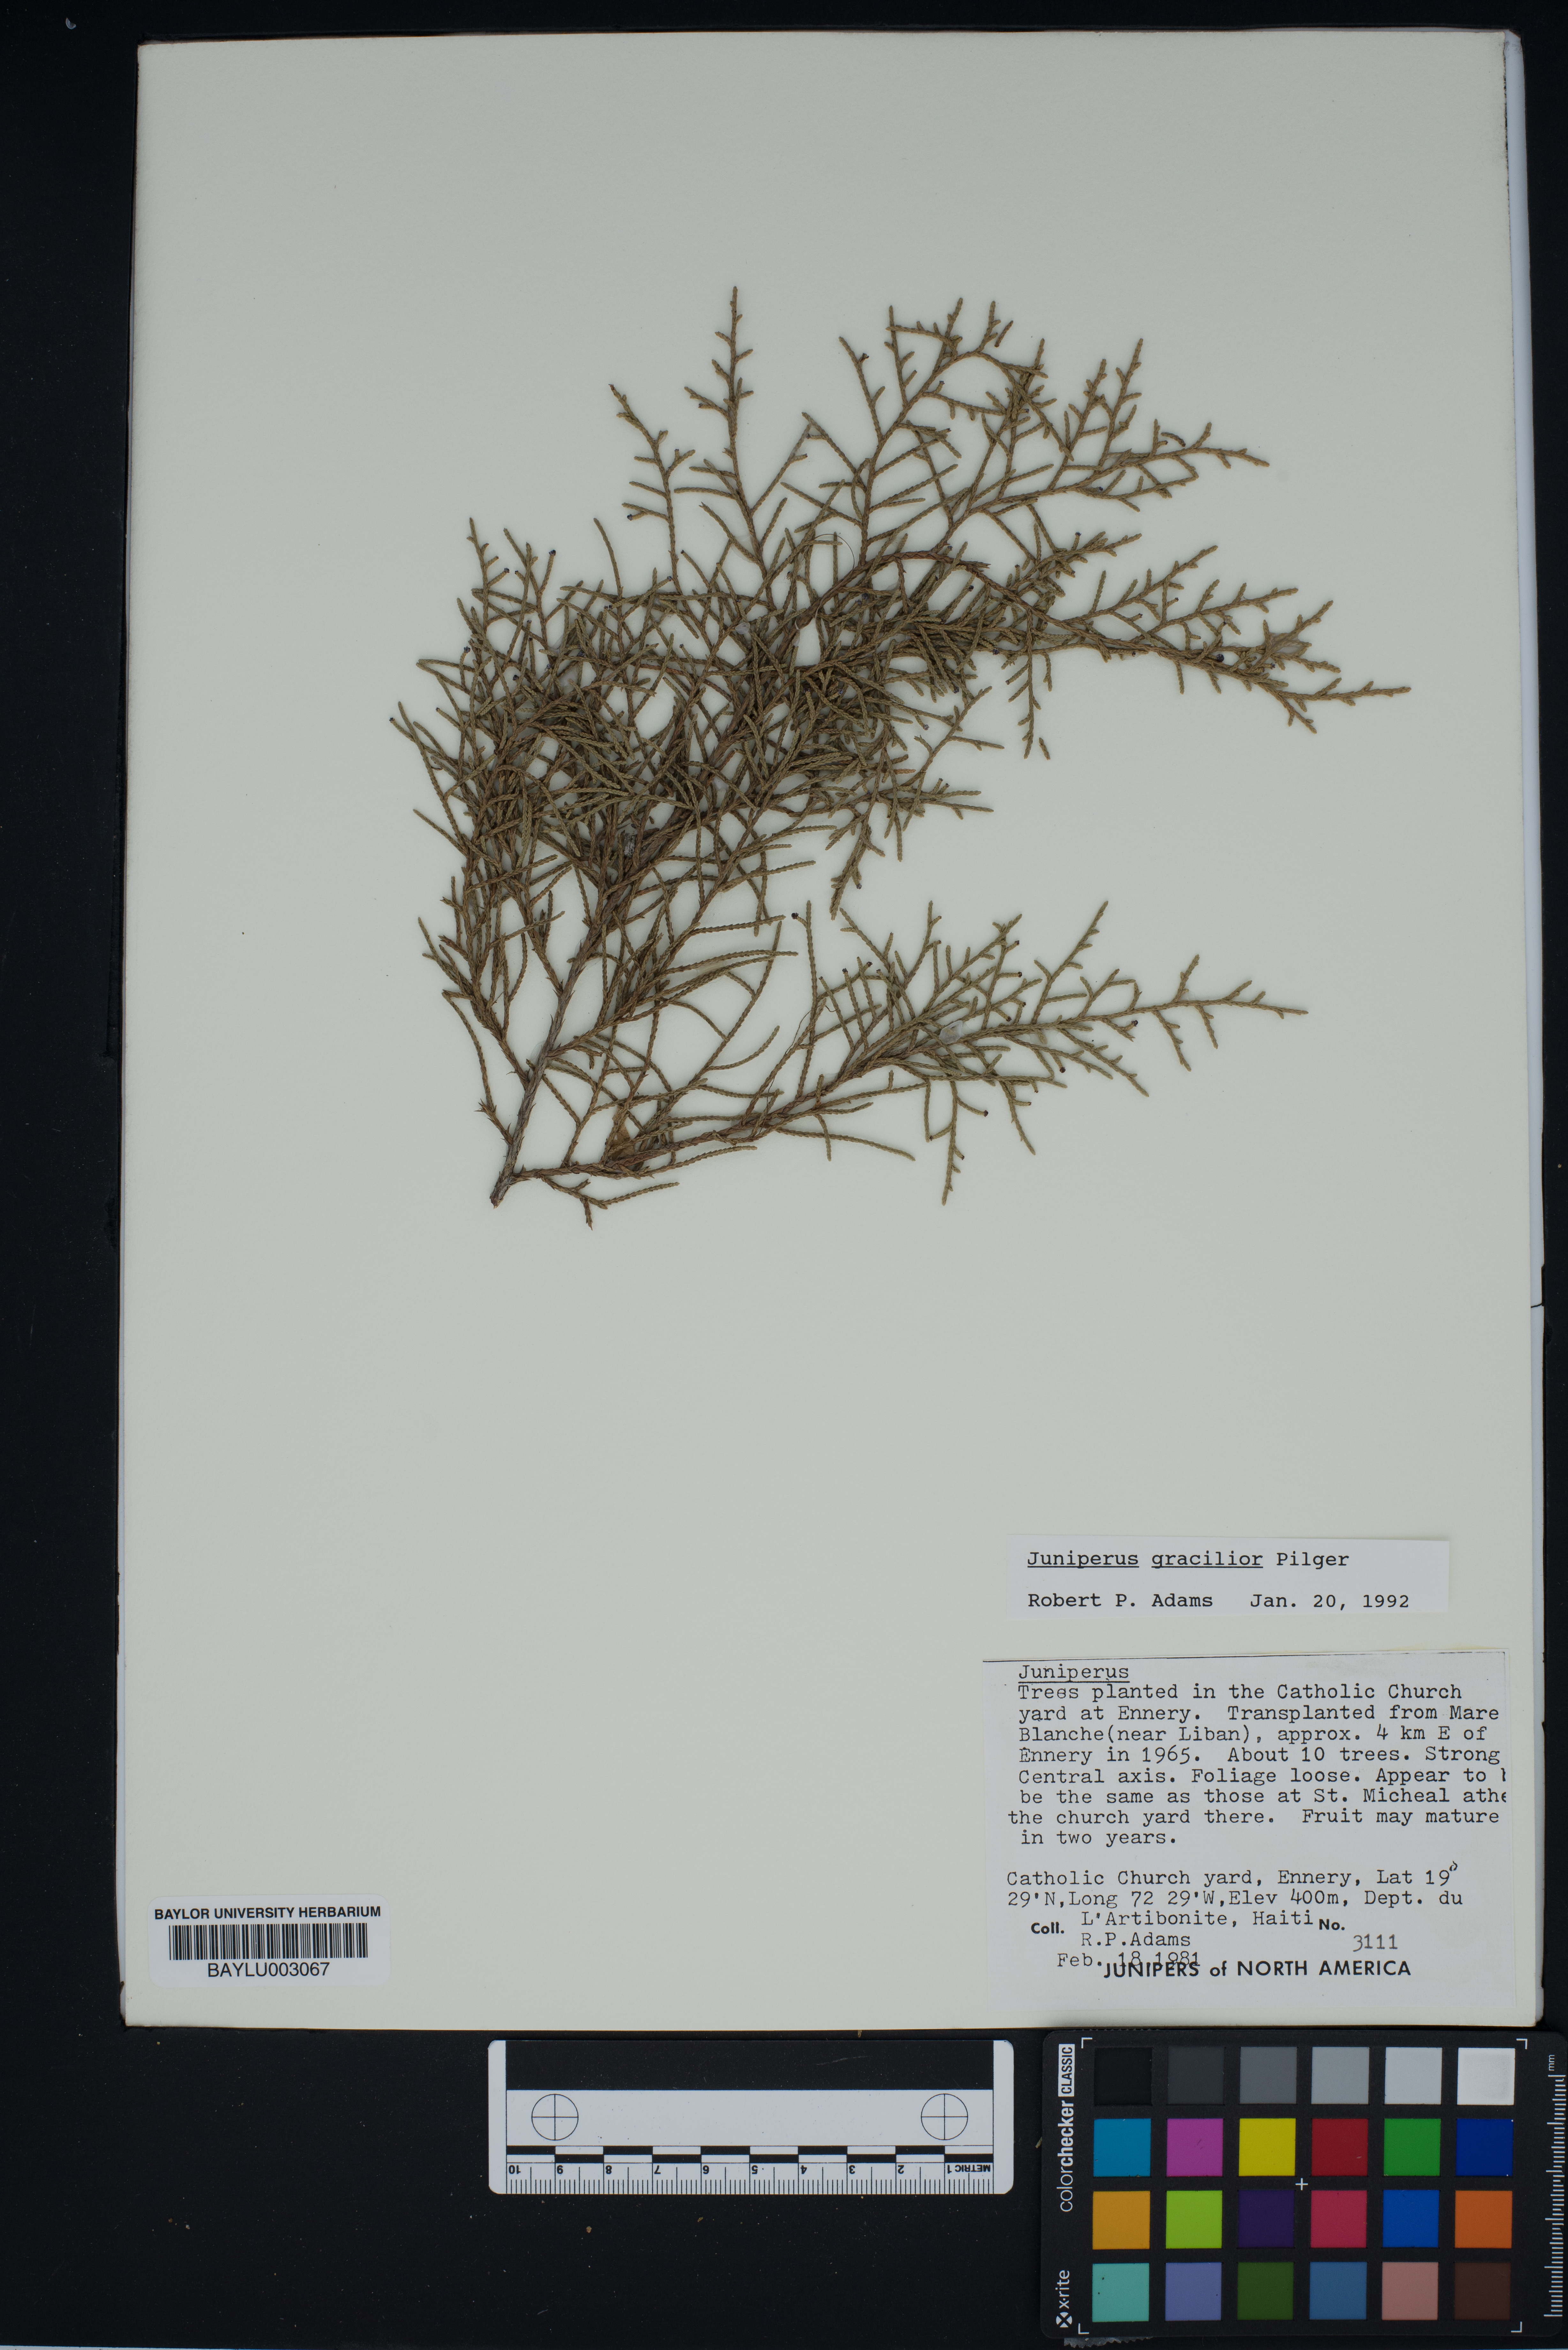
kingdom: Plantae
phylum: Tracheophyta
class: Pinopsida
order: Pinales
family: Cupressaceae
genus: Juniperus
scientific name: Juniperus gracilior
